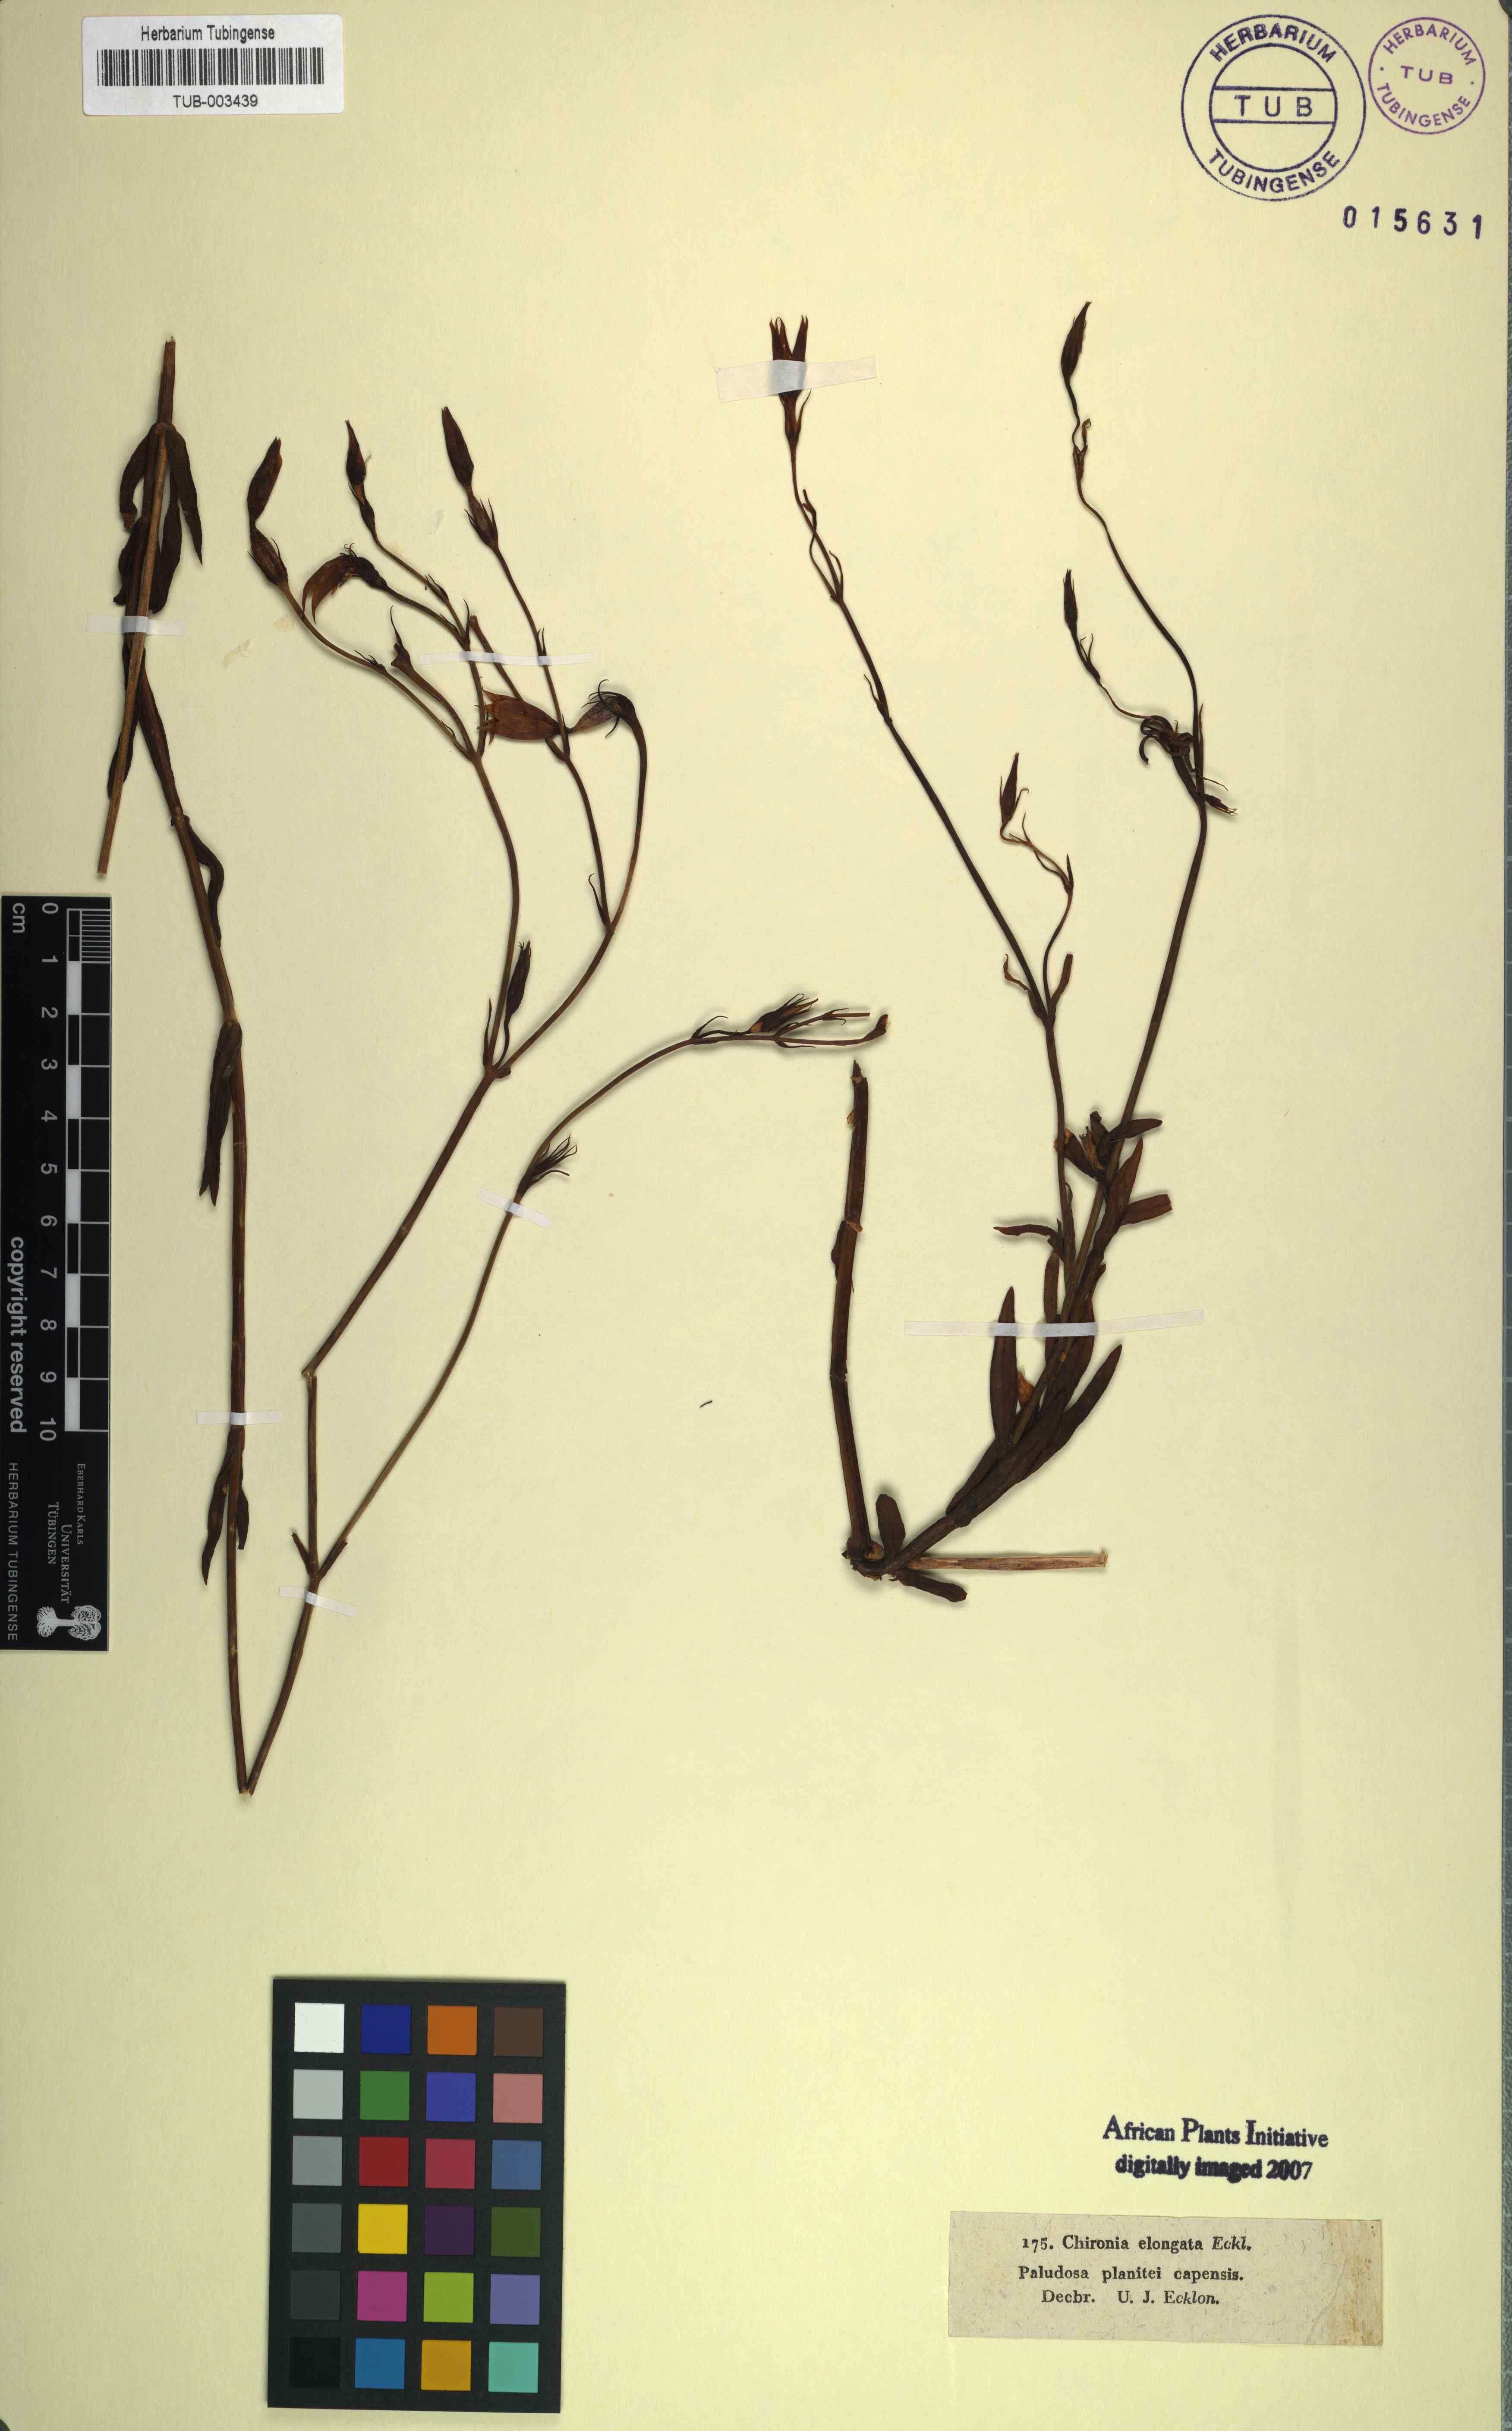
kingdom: Plantae
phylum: Tracheophyta
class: Magnoliopsida
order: Gentianales
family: Gentianaceae
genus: Chironia
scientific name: Chironia
